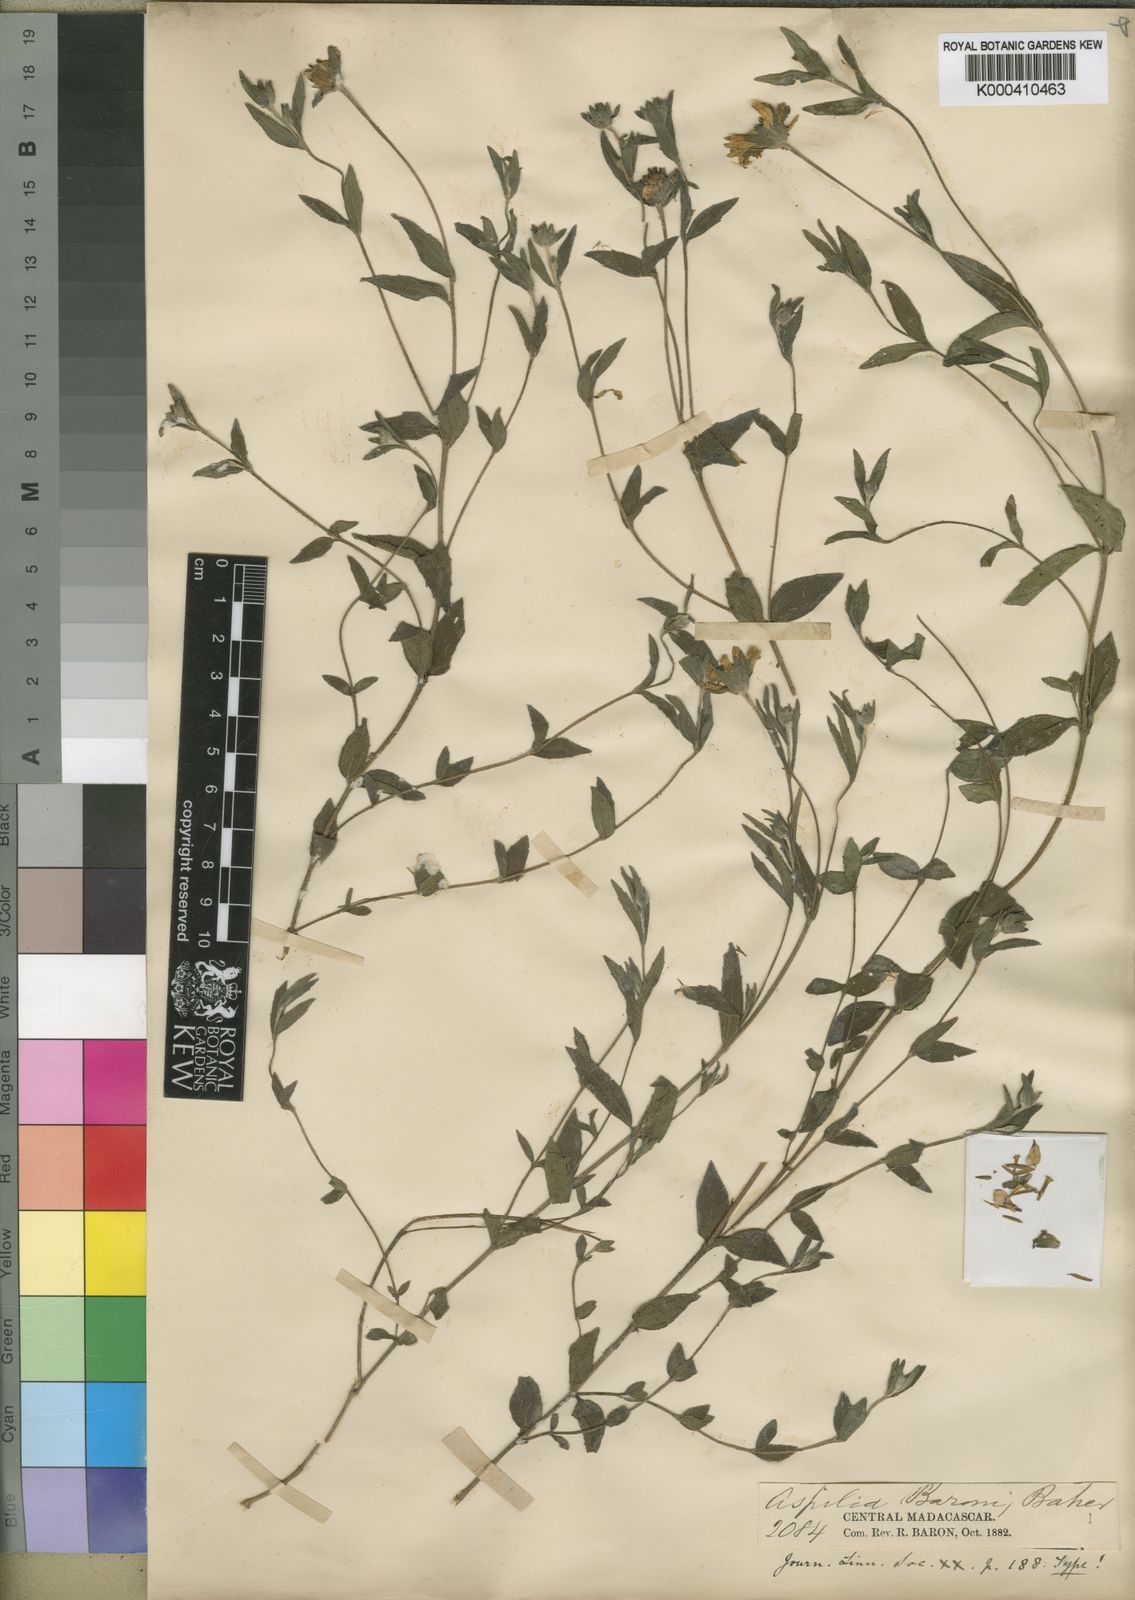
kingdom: Plantae
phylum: Tracheophyta
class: Magnoliopsida
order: Asterales
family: Asteraceae
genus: Aspilia
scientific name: Aspilia bojeri
